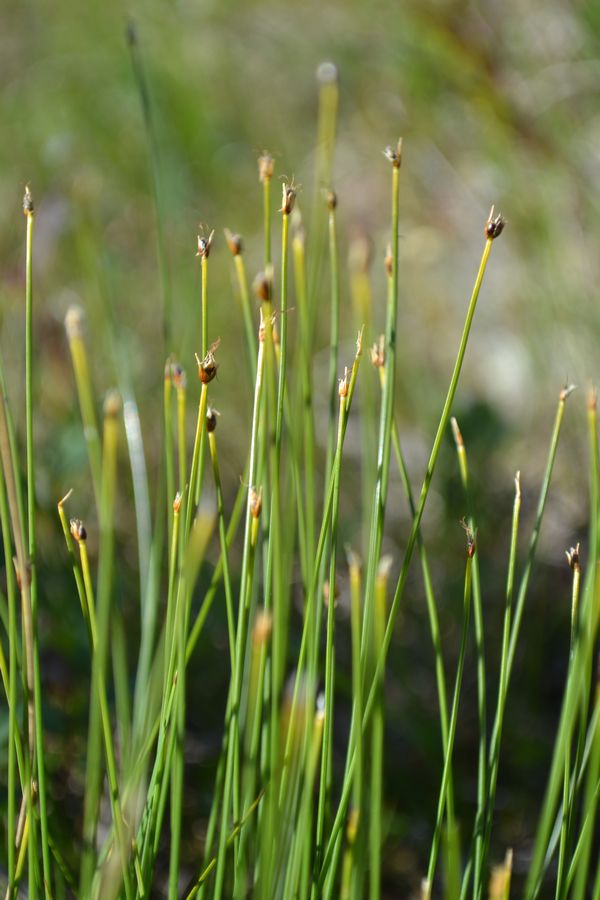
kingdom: Plantae
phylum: Tracheophyta
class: Liliopsida
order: Poales
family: Cyperaceae
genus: Trichophorum
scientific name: Trichophorum cespitosum
